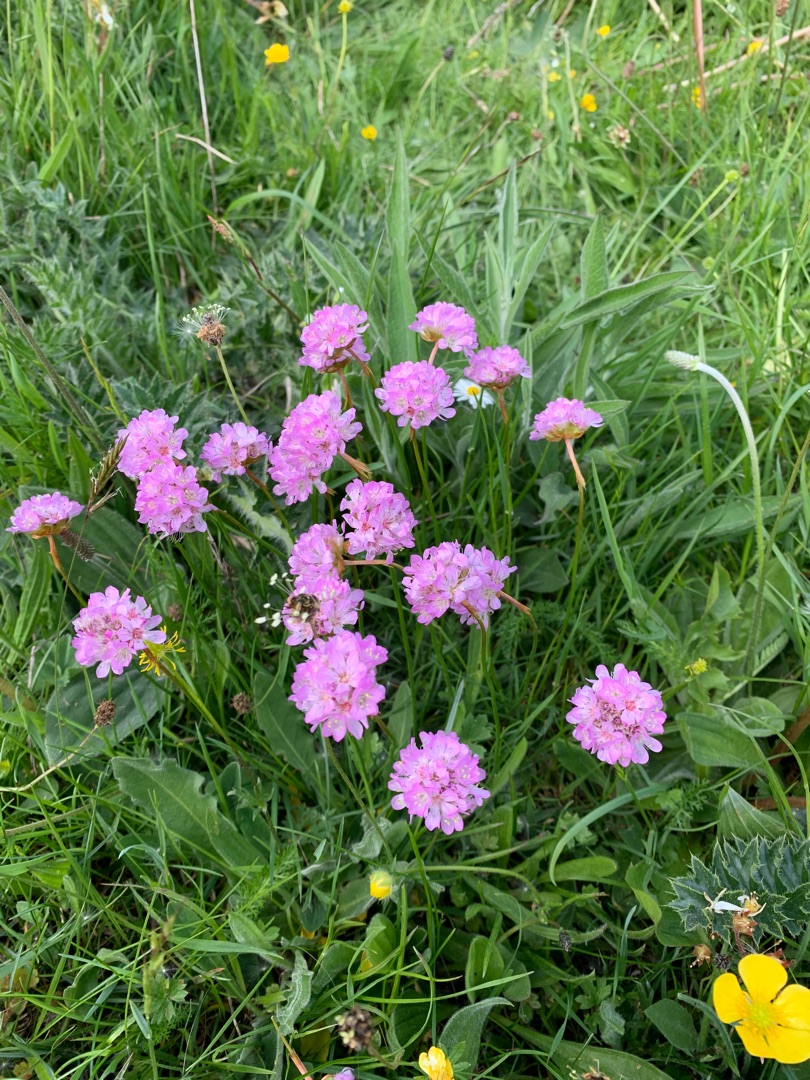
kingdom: Plantae
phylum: Tracheophyta
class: Magnoliopsida
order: Caryophyllales
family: Plumbaginaceae
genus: Armeria
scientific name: Armeria maritima
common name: Engelskgræs
